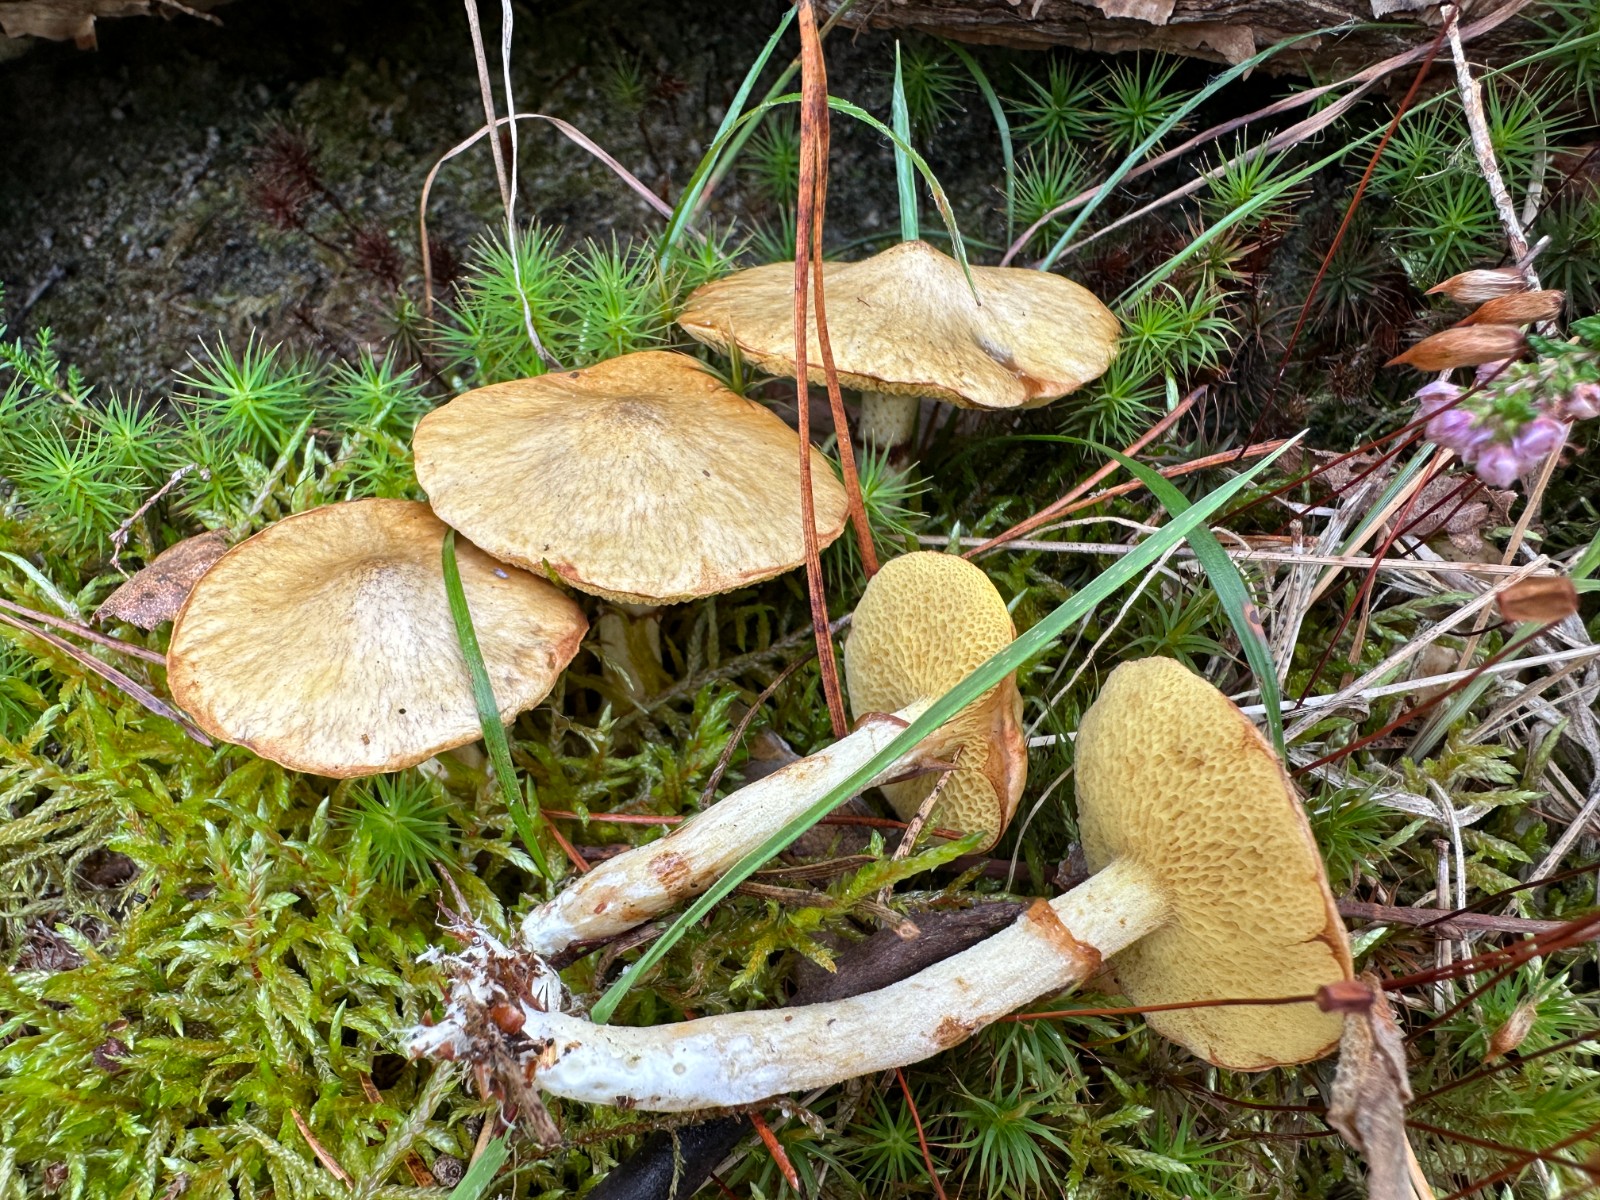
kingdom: Fungi
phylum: Basidiomycota
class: Agaricomycetes
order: Boletales
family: Suillaceae
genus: Suillus
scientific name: Suillus flavidus
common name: mose-slimrørhat
